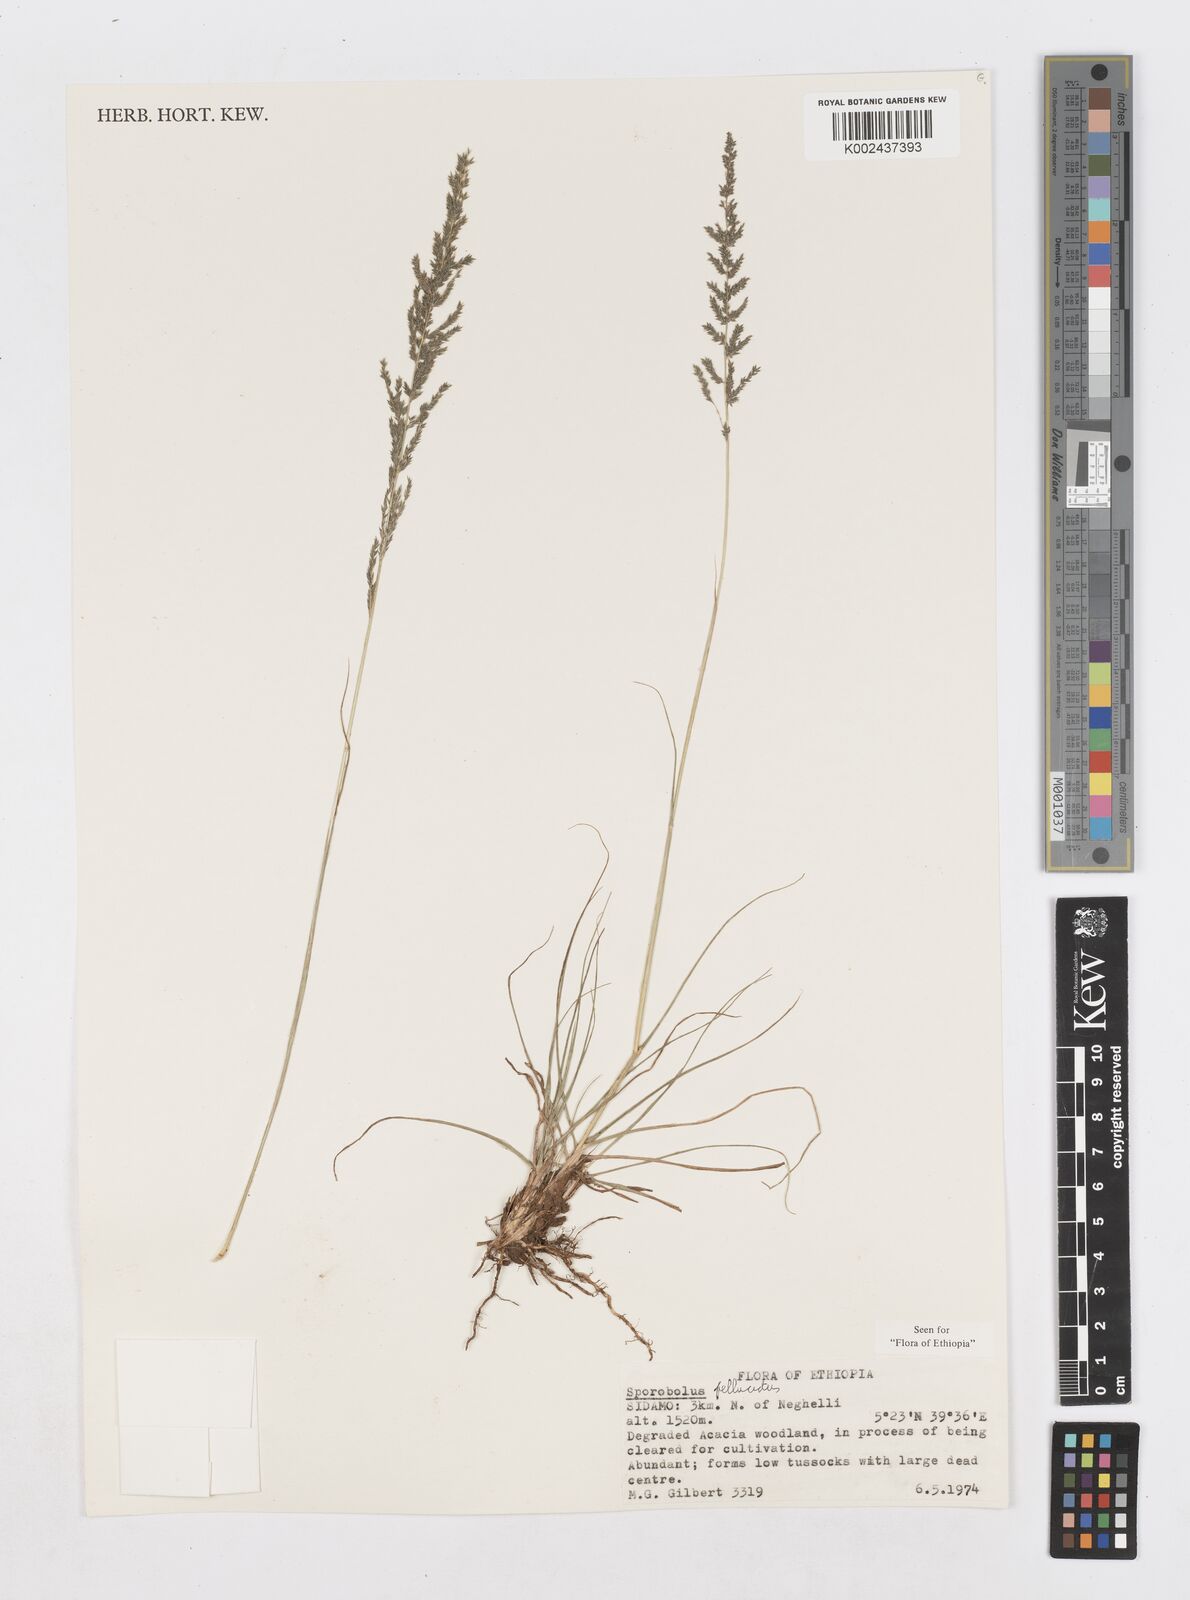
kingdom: Plantae
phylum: Tracheophyta
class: Liliopsida
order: Poales
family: Poaceae
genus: Sporobolus
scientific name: Sporobolus pellucidus
